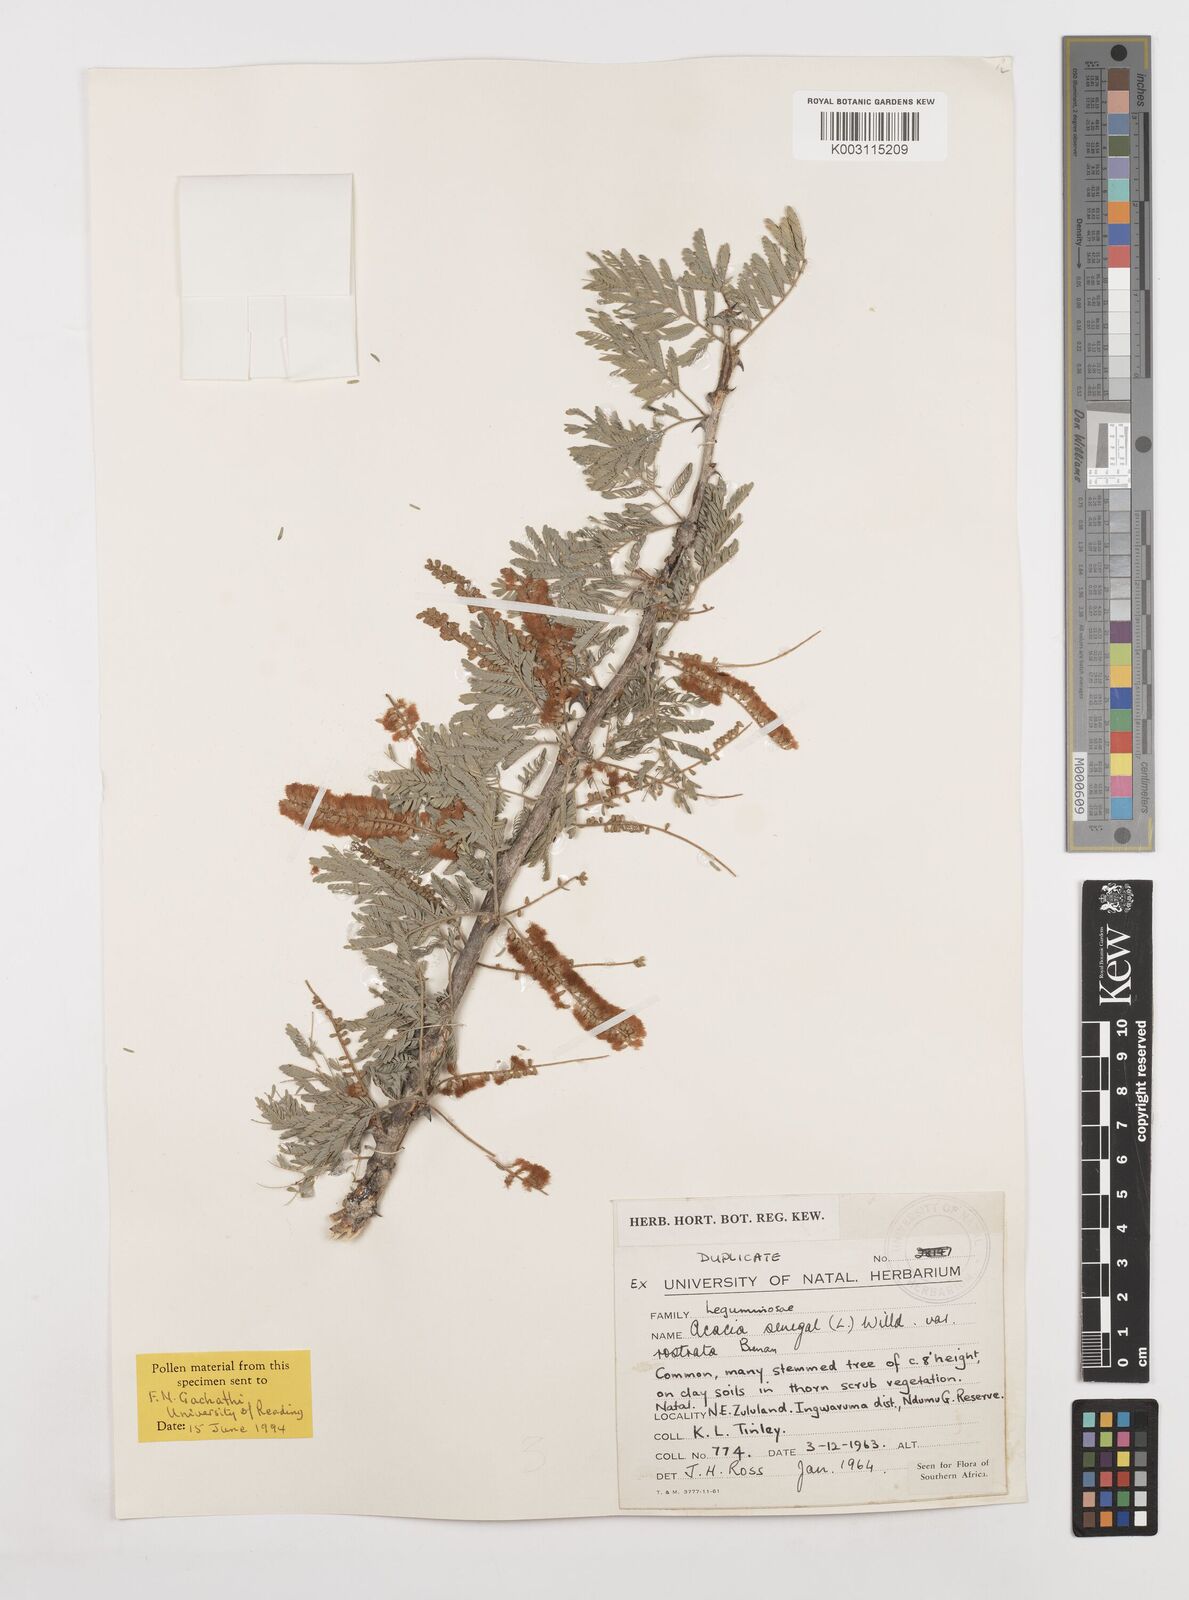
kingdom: Plantae
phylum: Tracheophyta
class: Magnoliopsida
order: Fabales
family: Fabaceae
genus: Senegalia
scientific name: Senegalia senegal
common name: Senegal-gum
